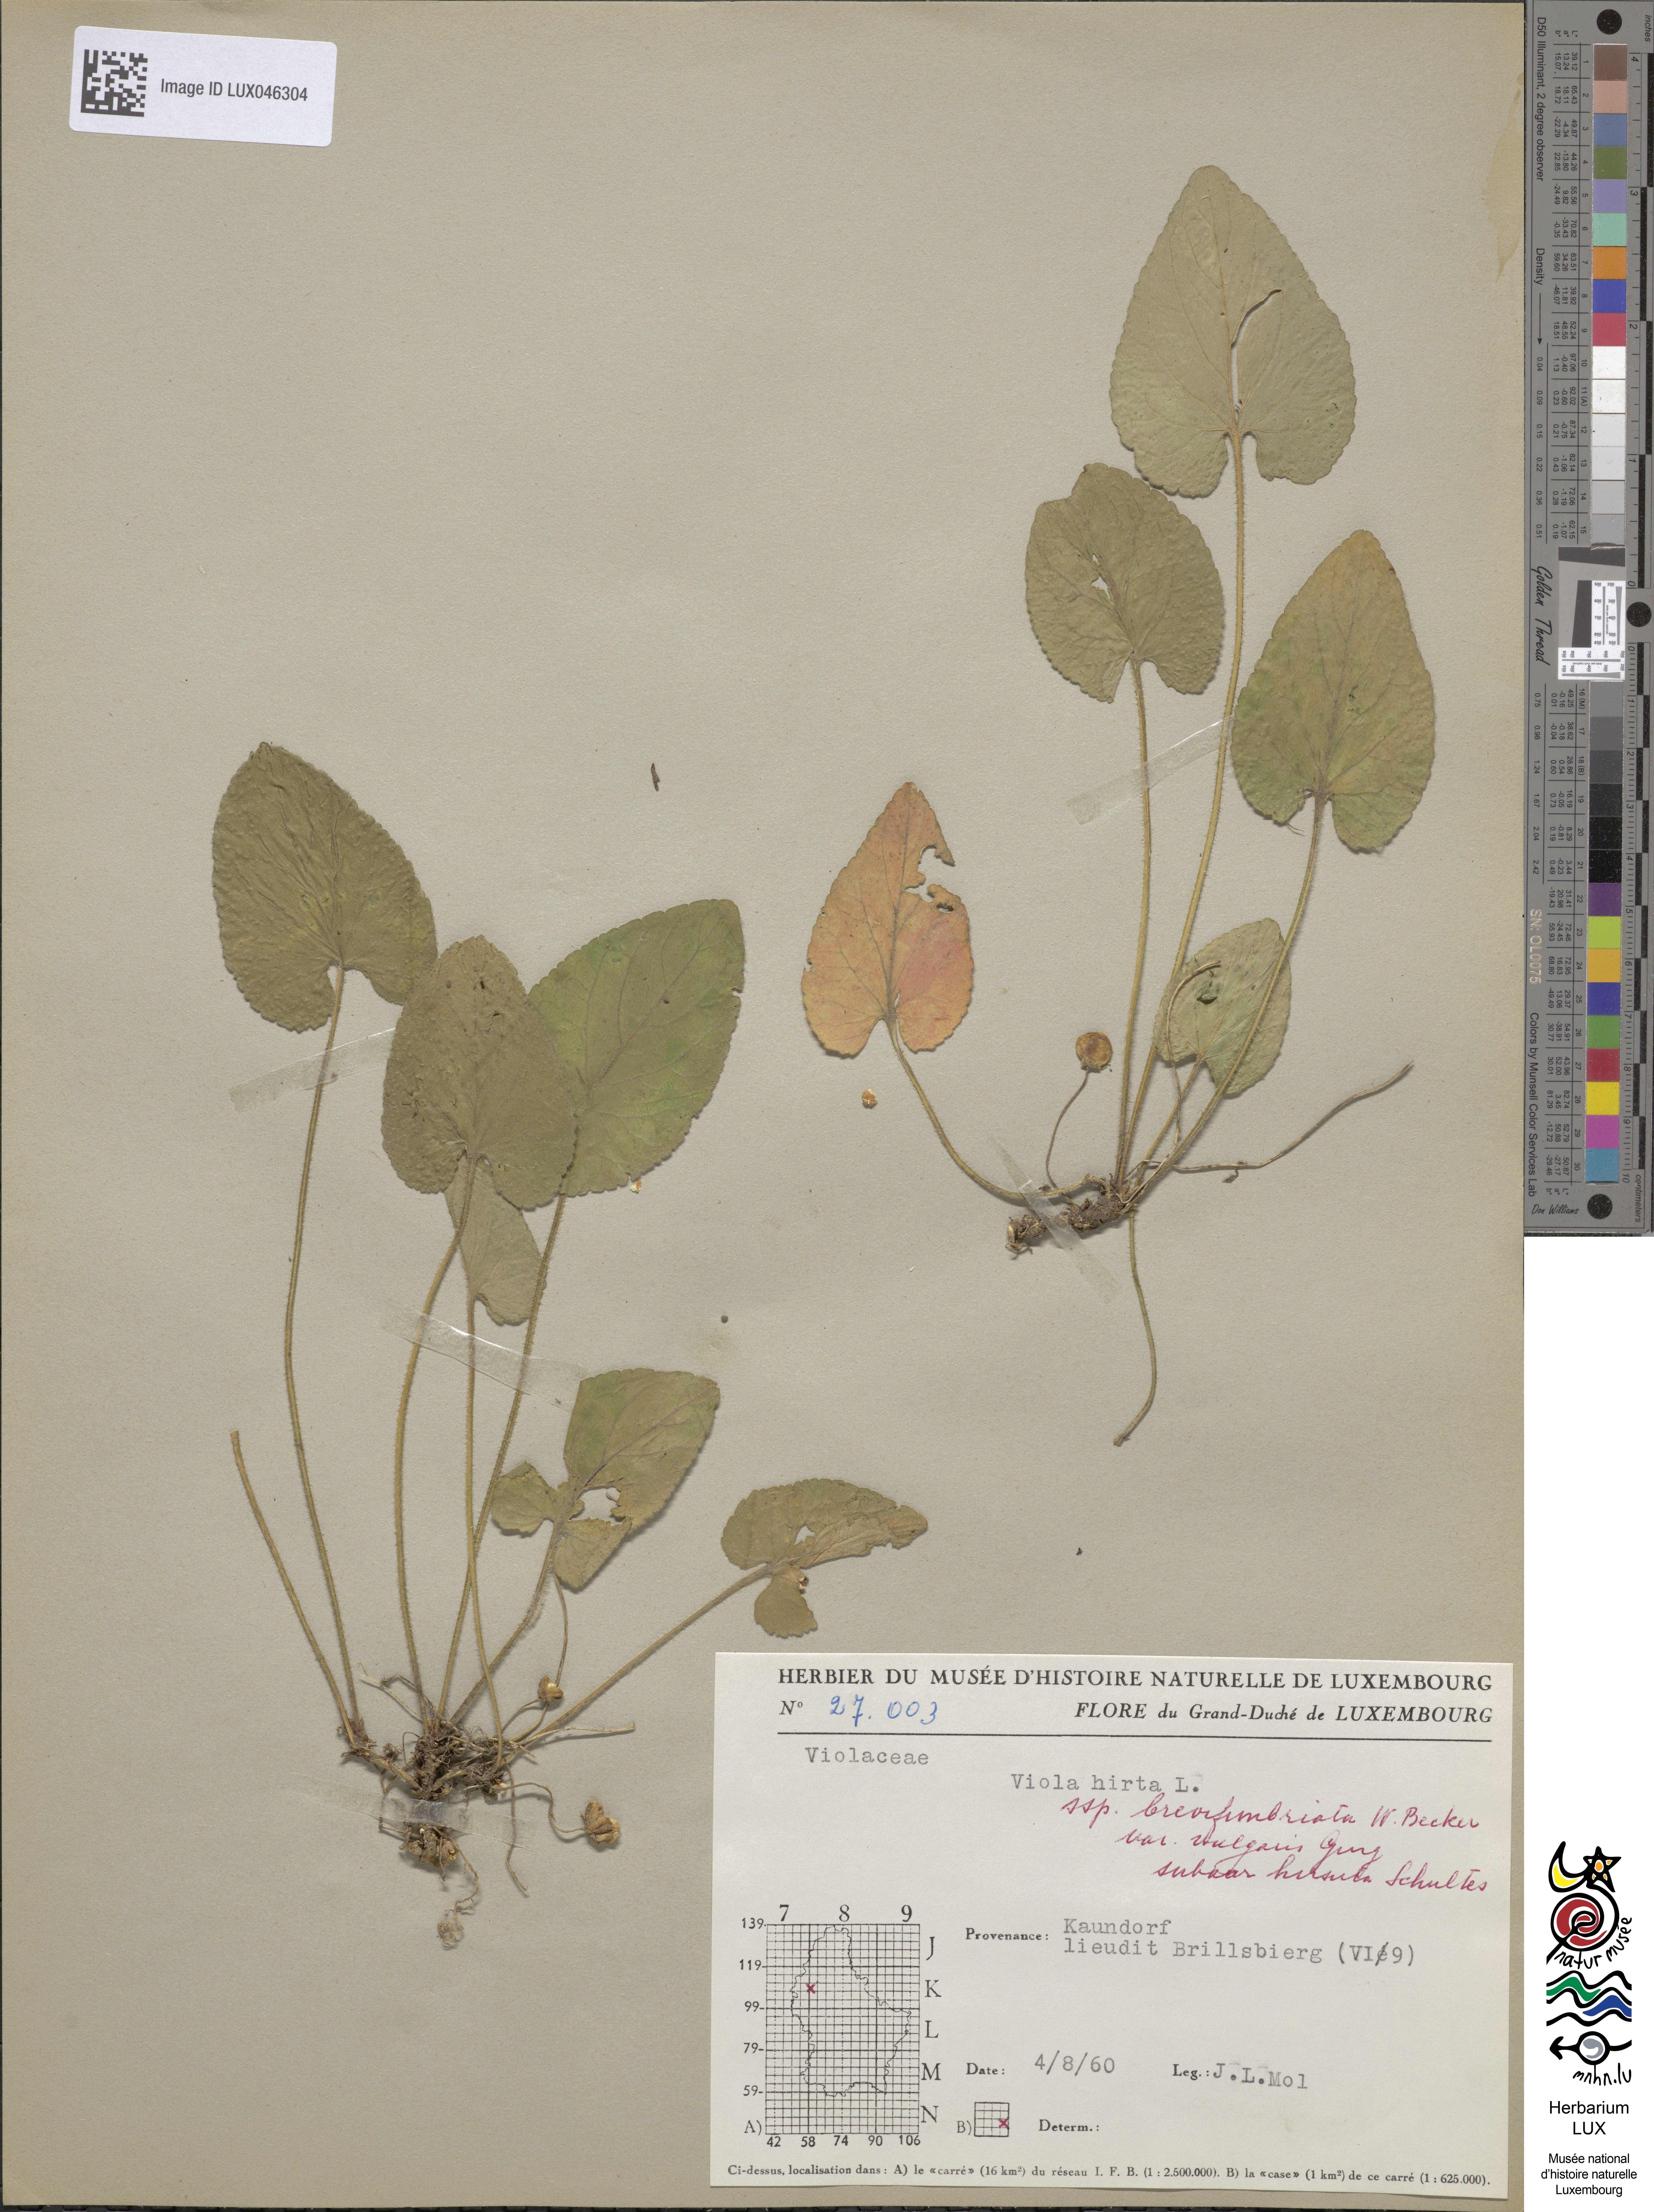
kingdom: Plantae
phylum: Tracheophyta
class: Magnoliopsida
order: Malpighiales
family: Violaceae
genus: Viola
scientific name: Viola hirta
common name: Hairy violet
